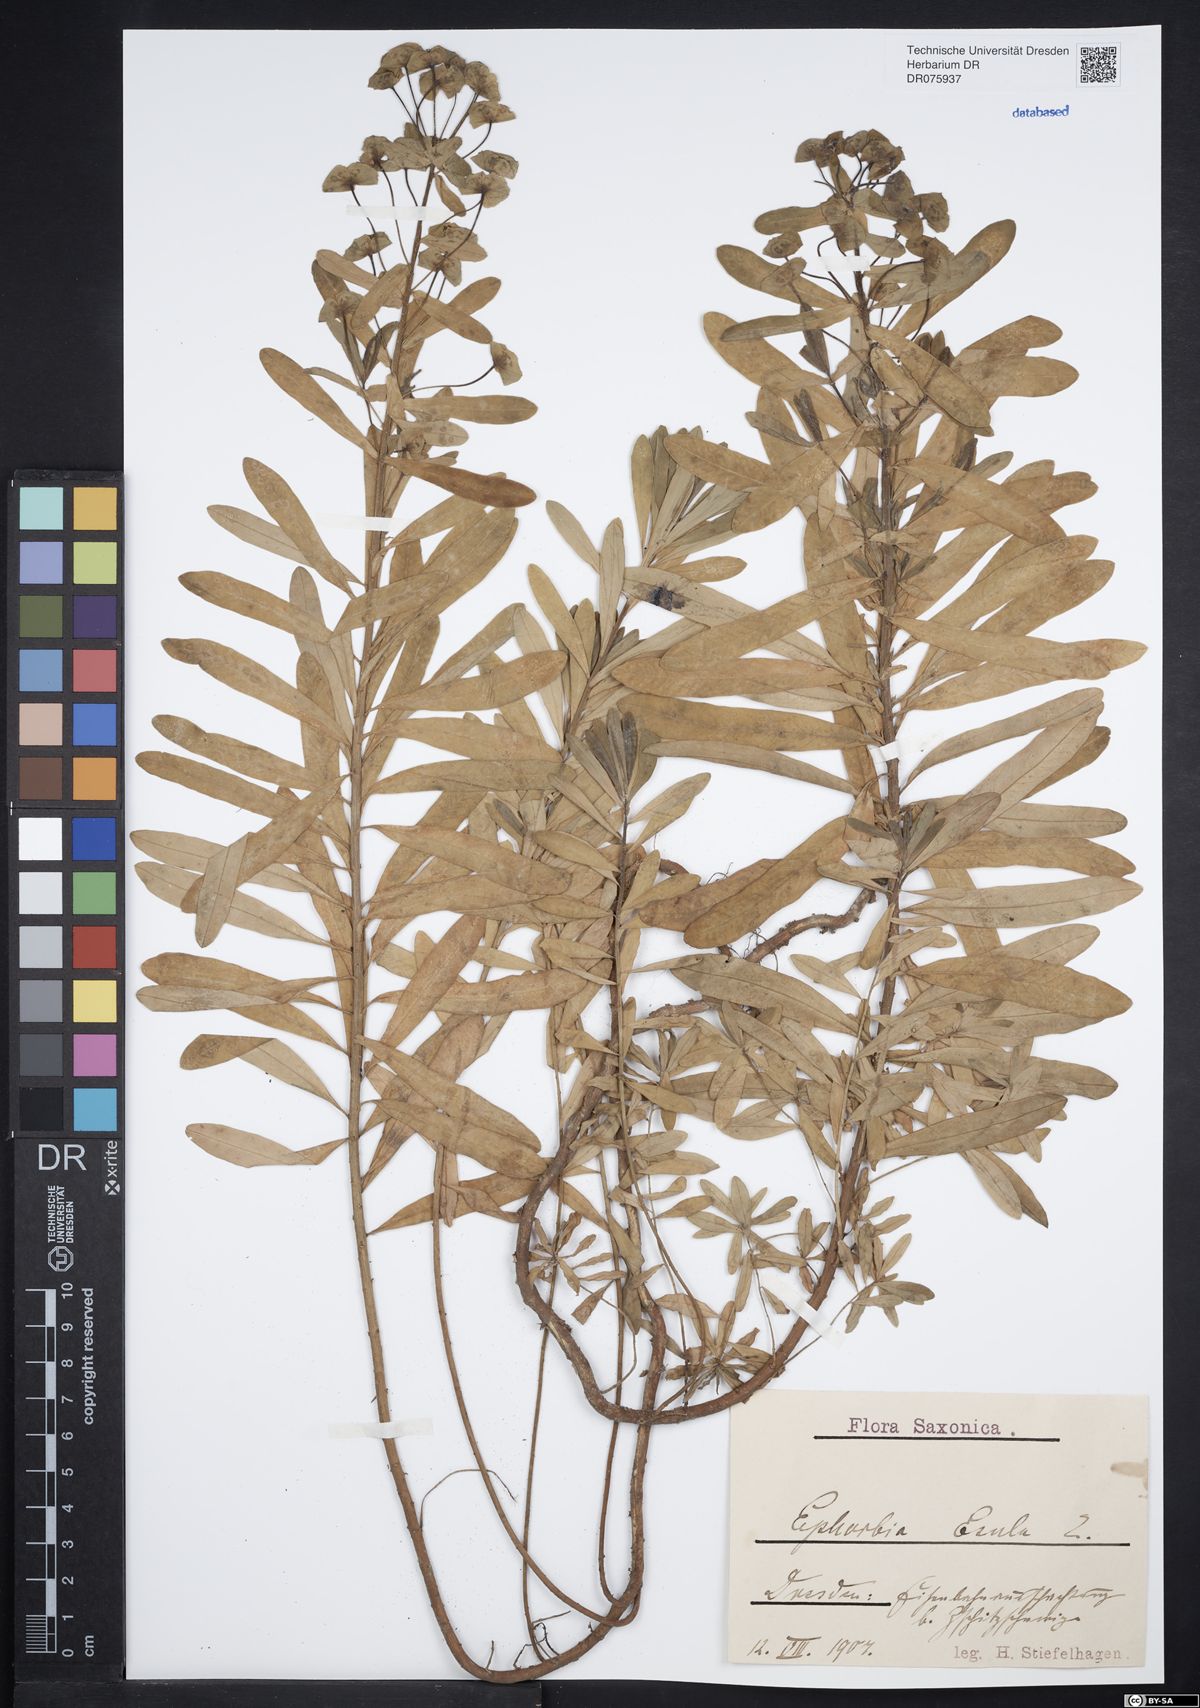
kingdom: Plantae
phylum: Tracheophyta
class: Magnoliopsida
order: Malpighiales
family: Euphorbiaceae
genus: Euphorbia
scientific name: Euphorbia esula
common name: Leafy spurge
